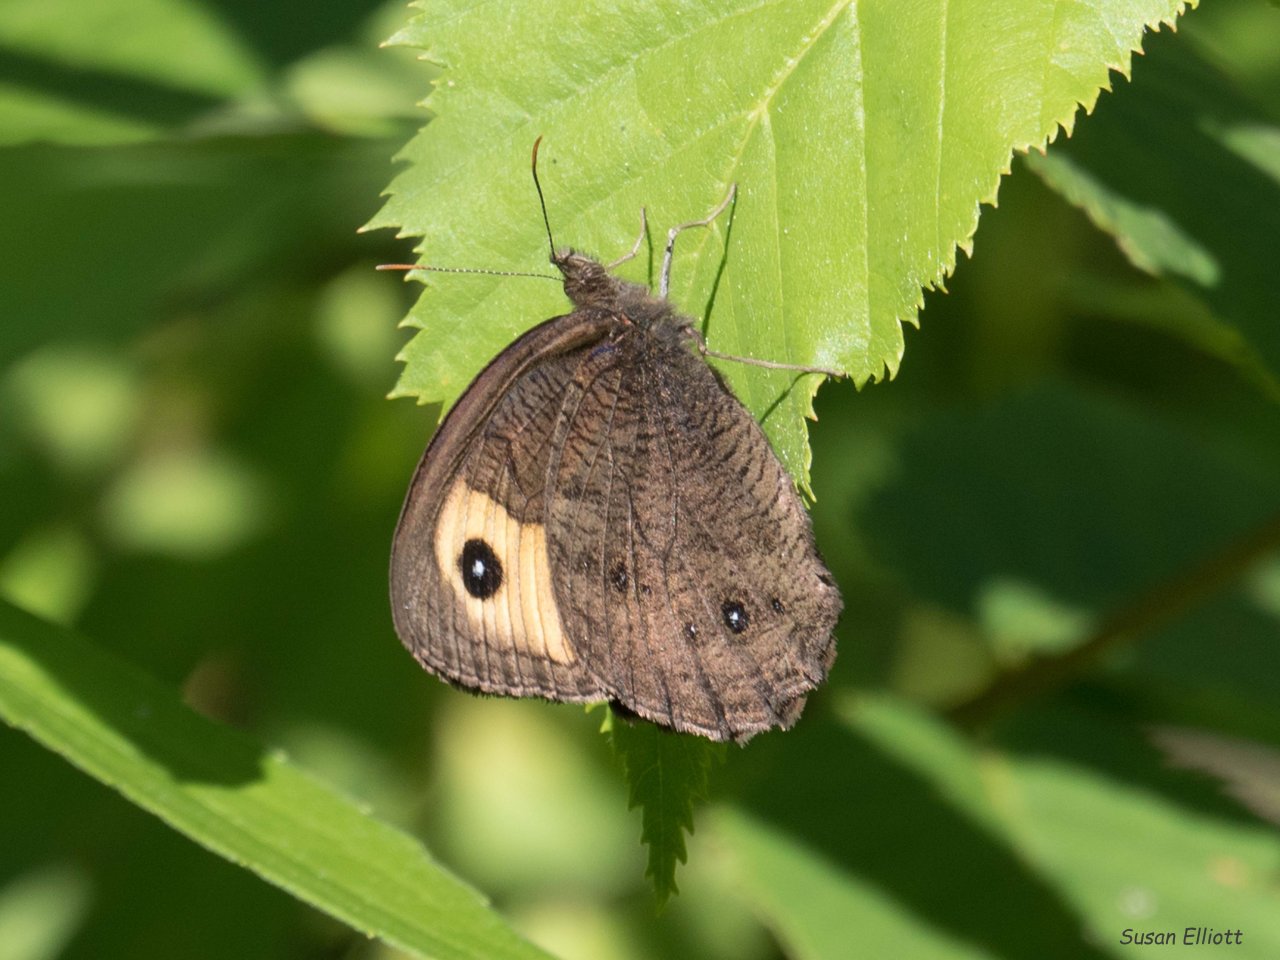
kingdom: Animalia
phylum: Arthropoda
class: Insecta
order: Lepidoptera
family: Nymphalidae
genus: Cercyonis
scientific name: Cercyonis pegala
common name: Common Wood-Nymph
